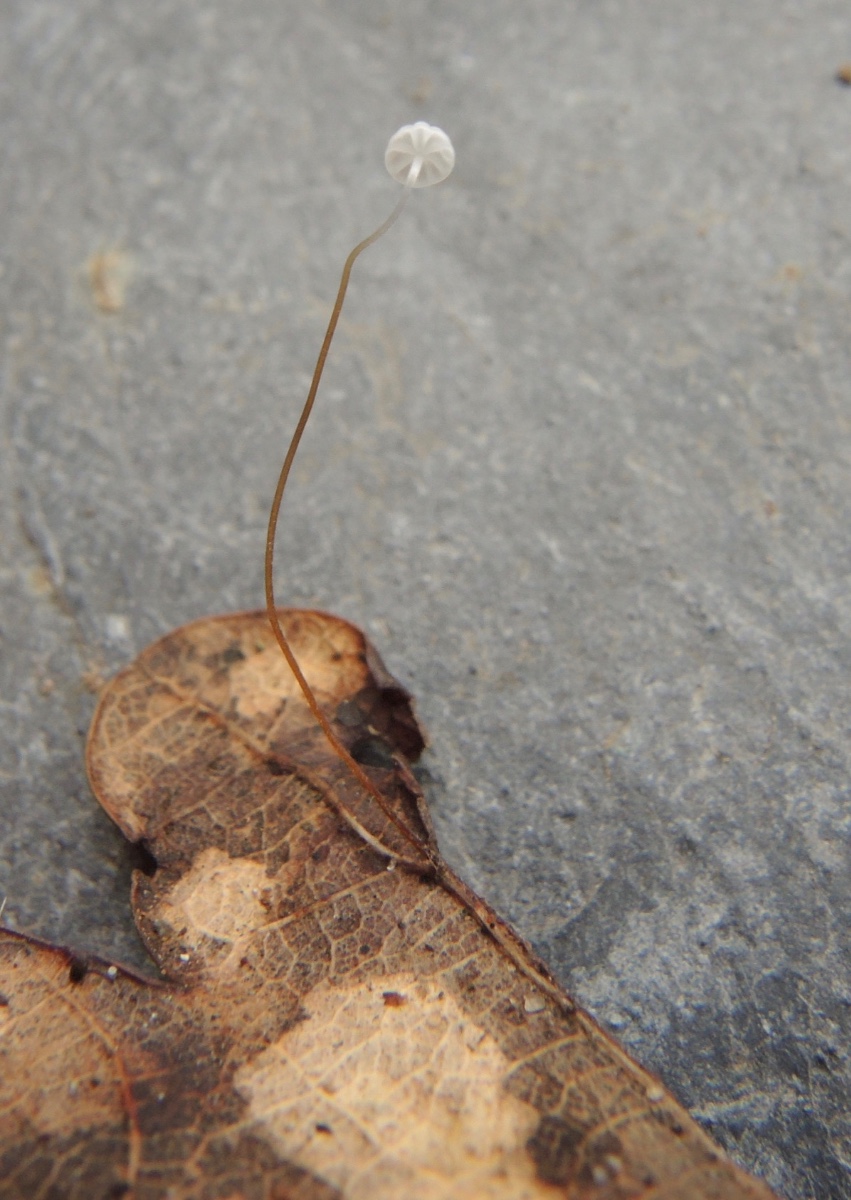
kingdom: Fungi
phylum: Basidiomycota
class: Agaricomycetes
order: Agaricales
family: Physalacriaceae
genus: Rhizomarasmius
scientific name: Rhizomarasmius setosus
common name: bøgeblads-bruskhat
